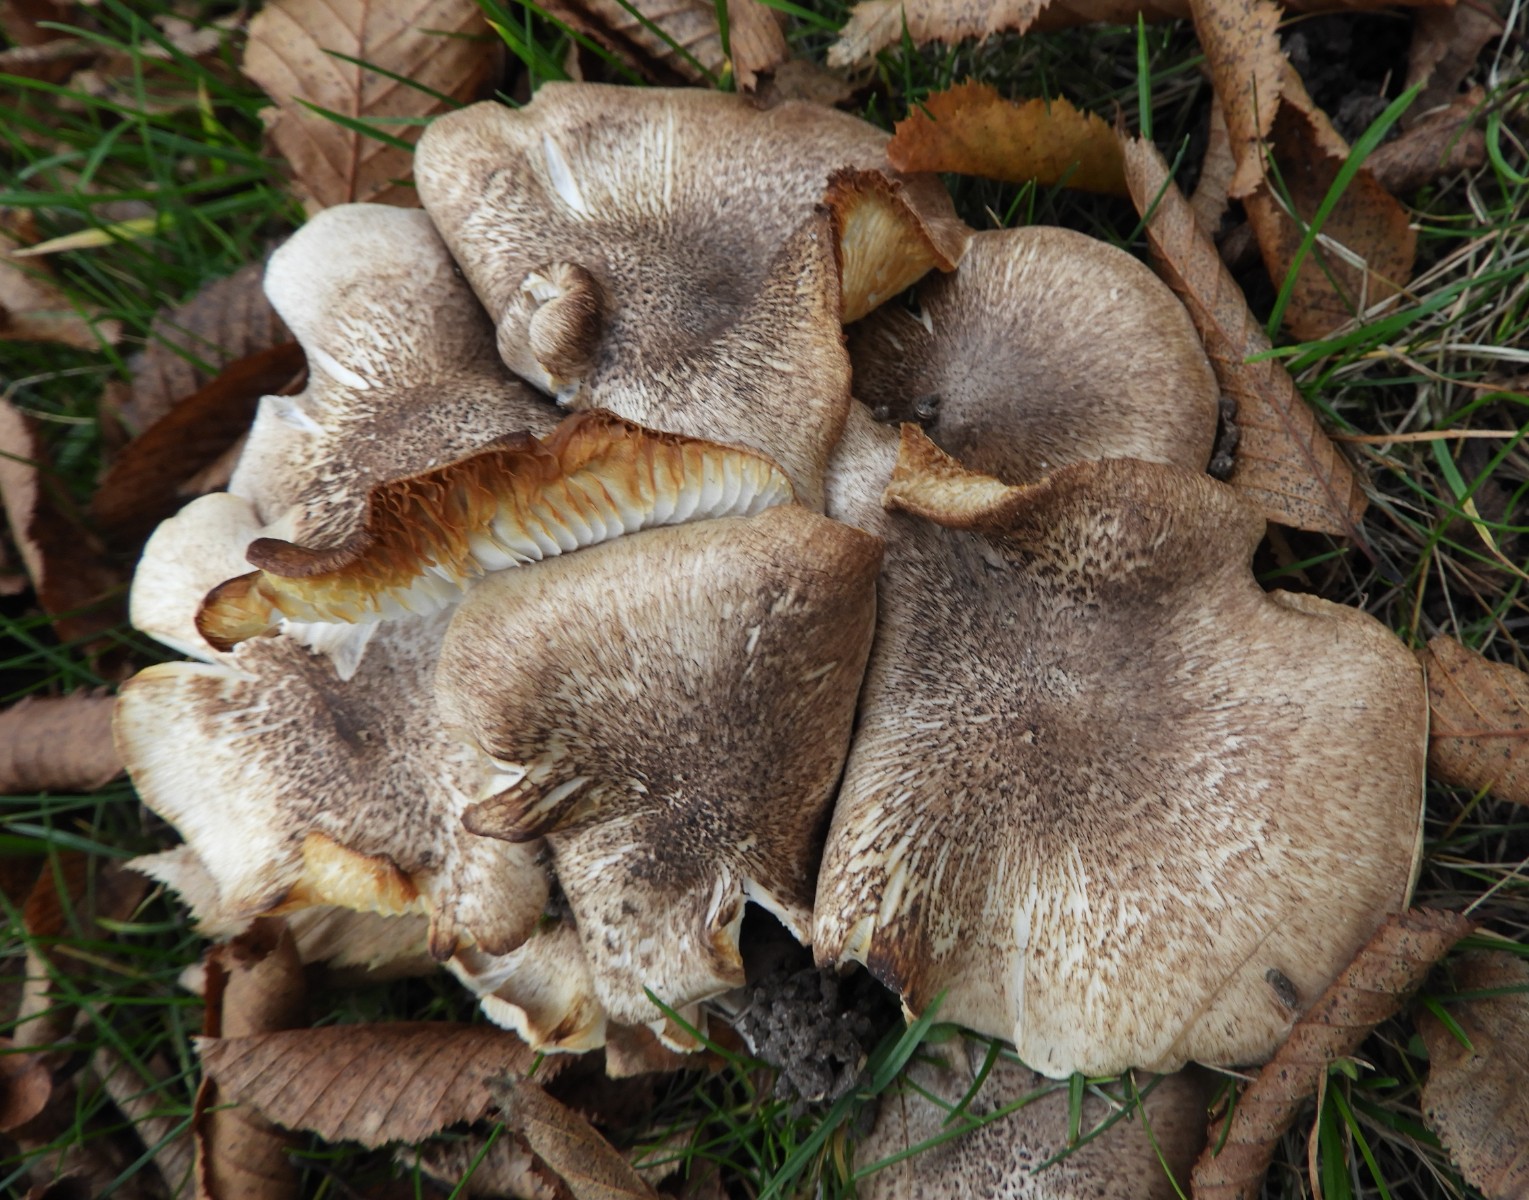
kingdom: Fungi
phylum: Basidiomycota
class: Agaricomycetes
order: Agaricales
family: Tricholomataceae
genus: Tricholoma
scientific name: Tricholoma scalpturatum
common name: gulplettet ridderhat
